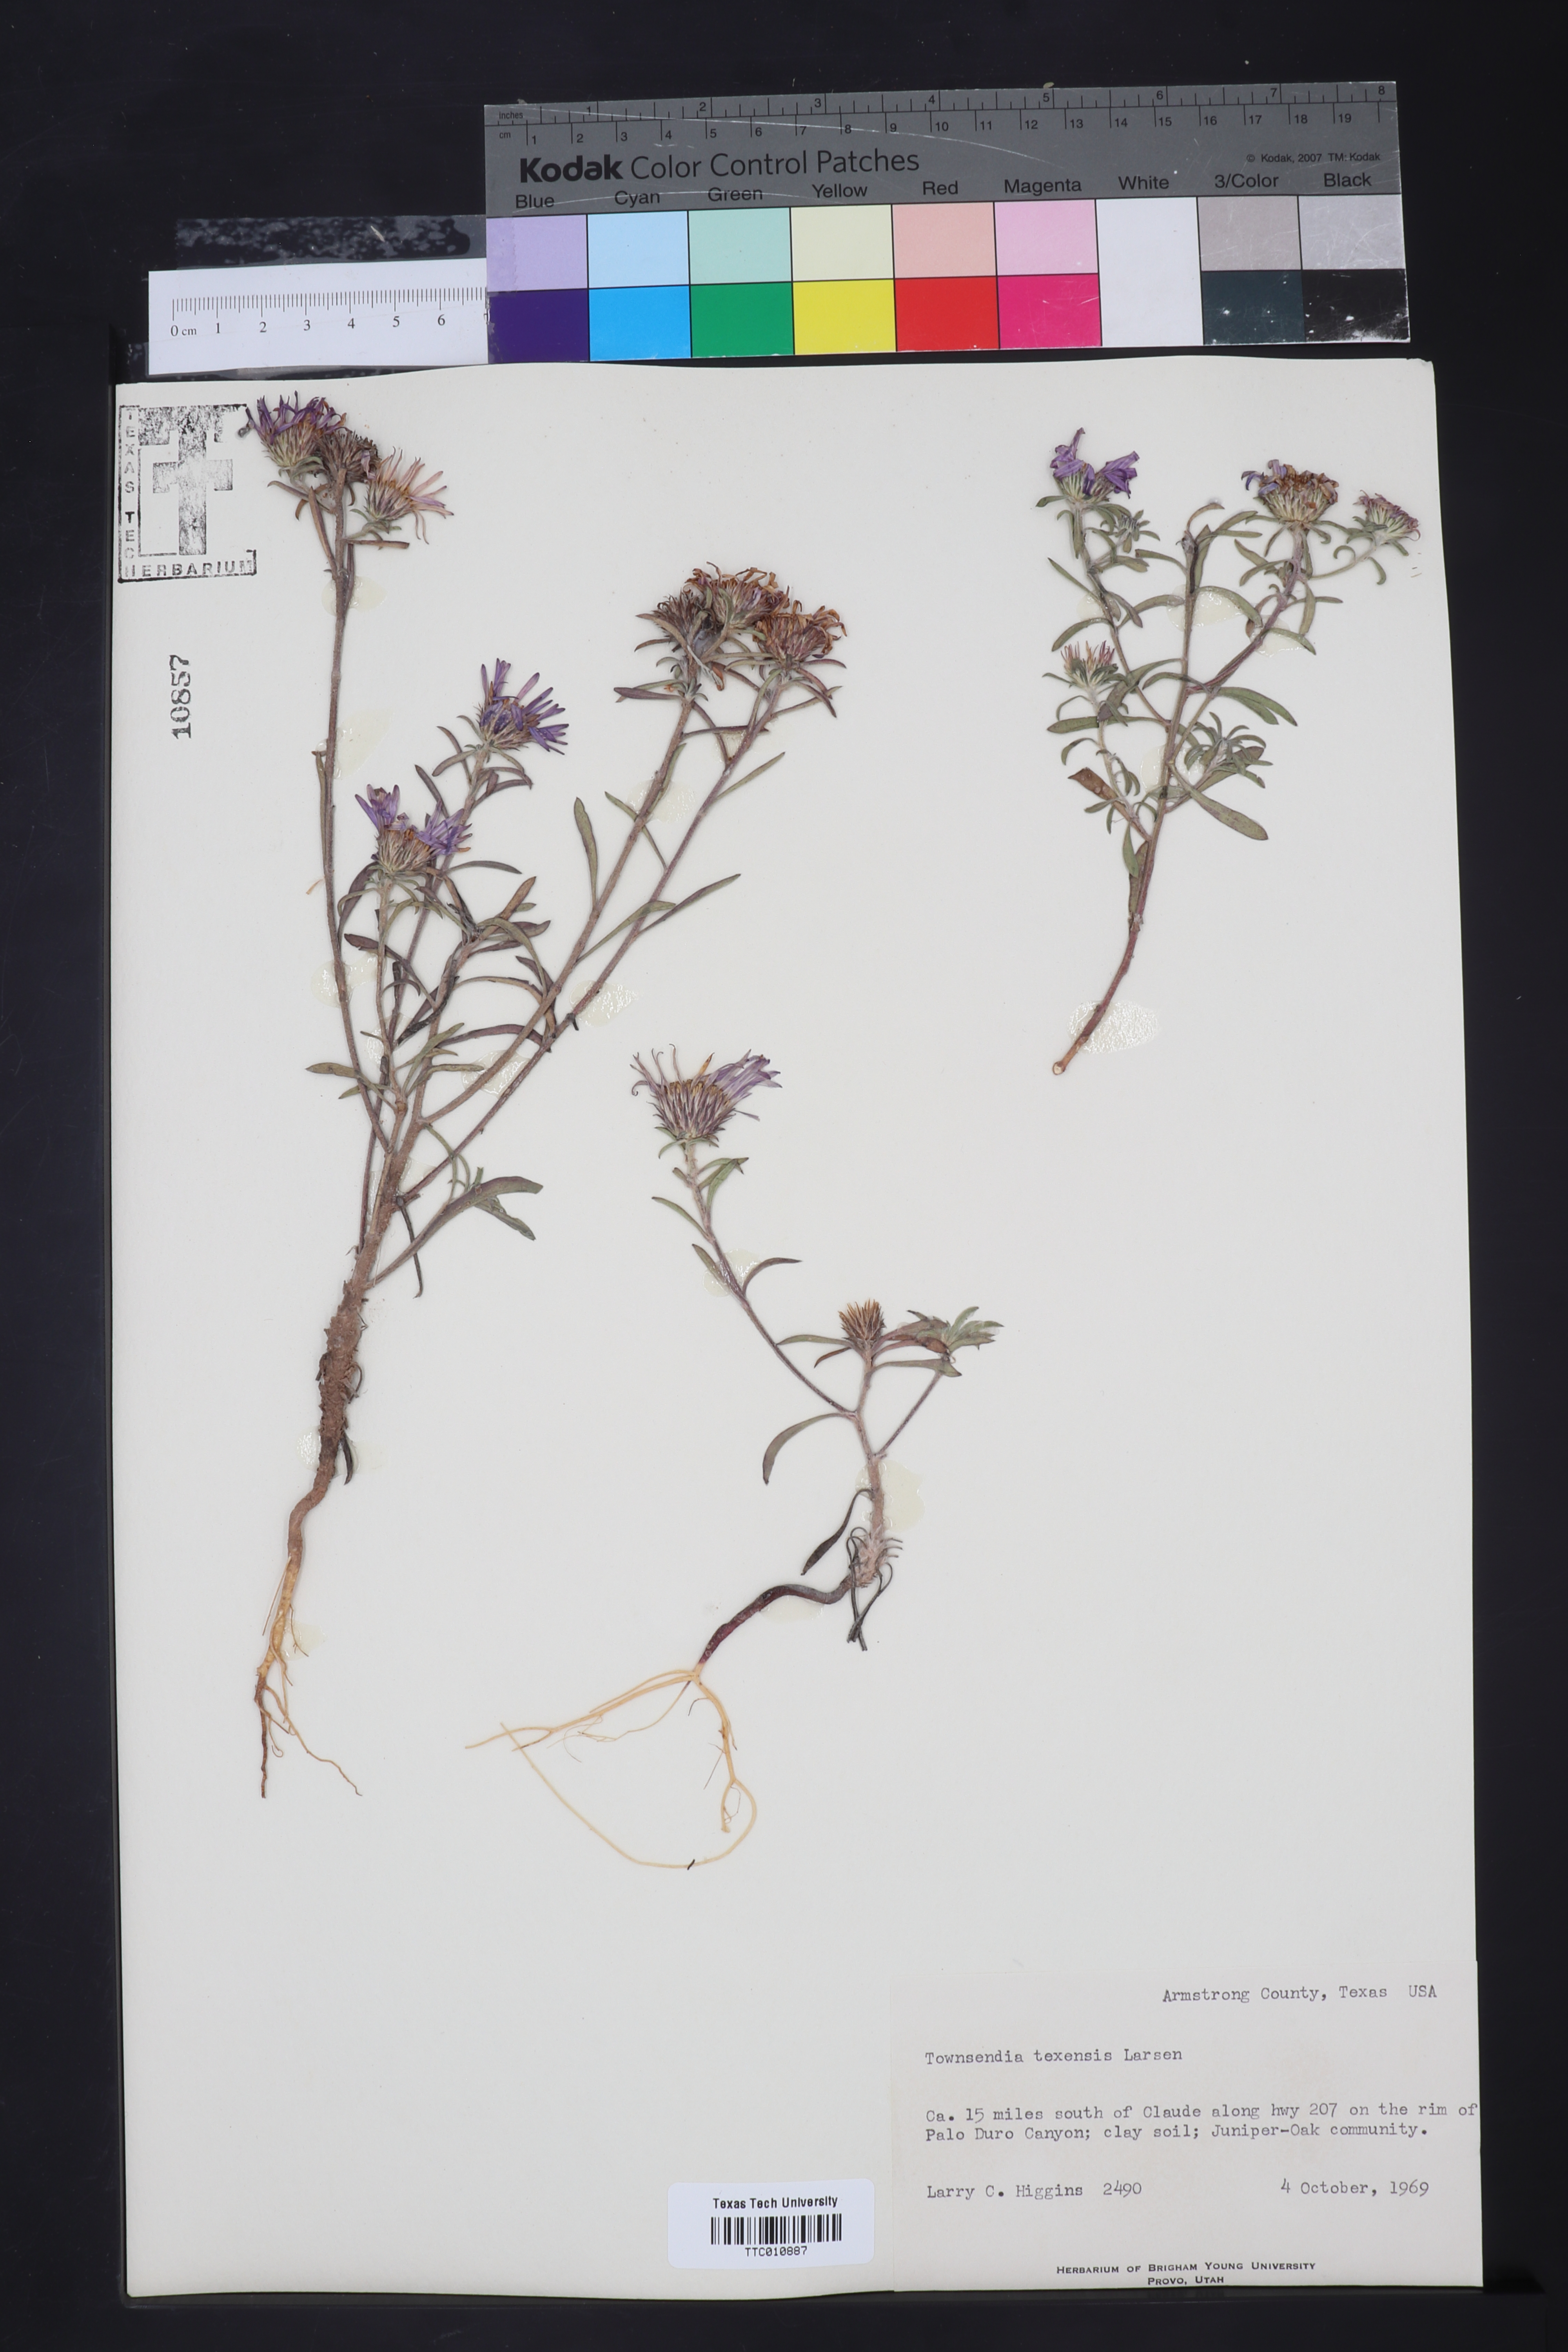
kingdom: Plantae
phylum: Tracheophyta
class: Magnoliopsida
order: Asterales
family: Asteraceae
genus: Townsendia
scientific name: Townsendia texensis
